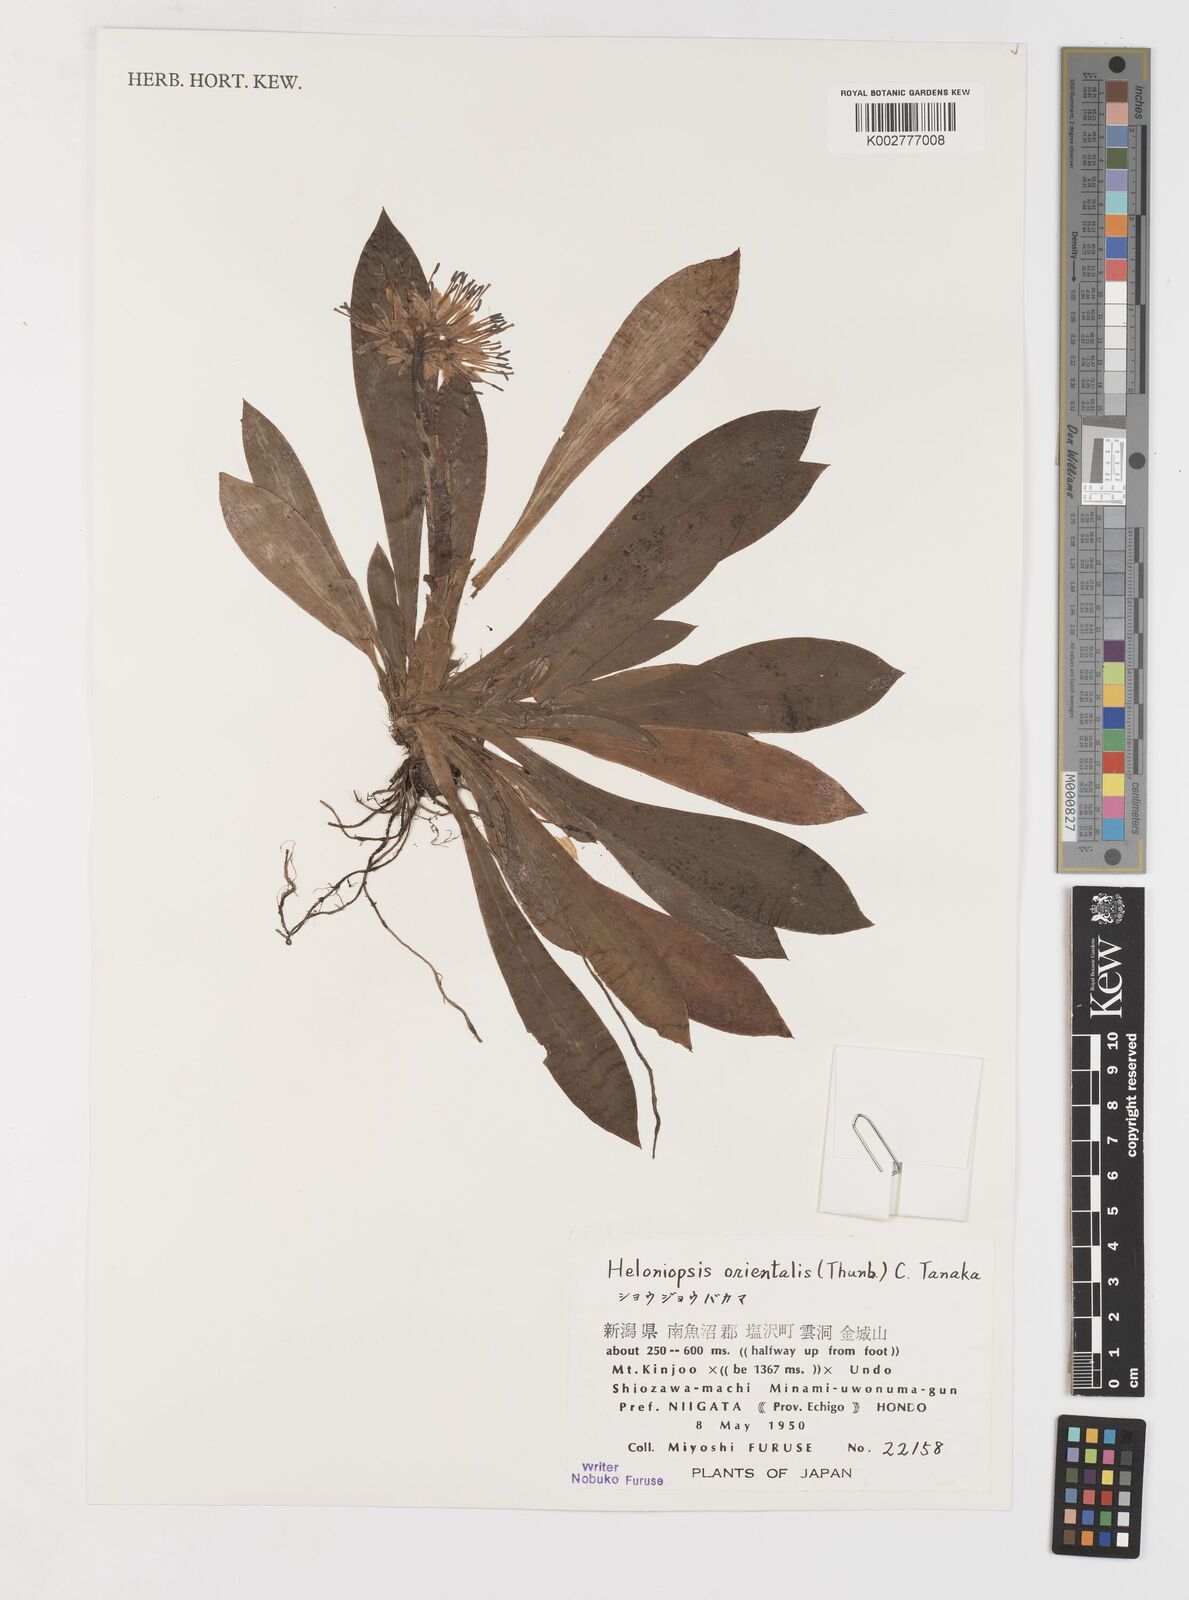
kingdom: Plantae
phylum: Tracheophyta
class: Liliopsida
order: Liliales
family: Melanthiaceae
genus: Helonias
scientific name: Helonias orientalis
